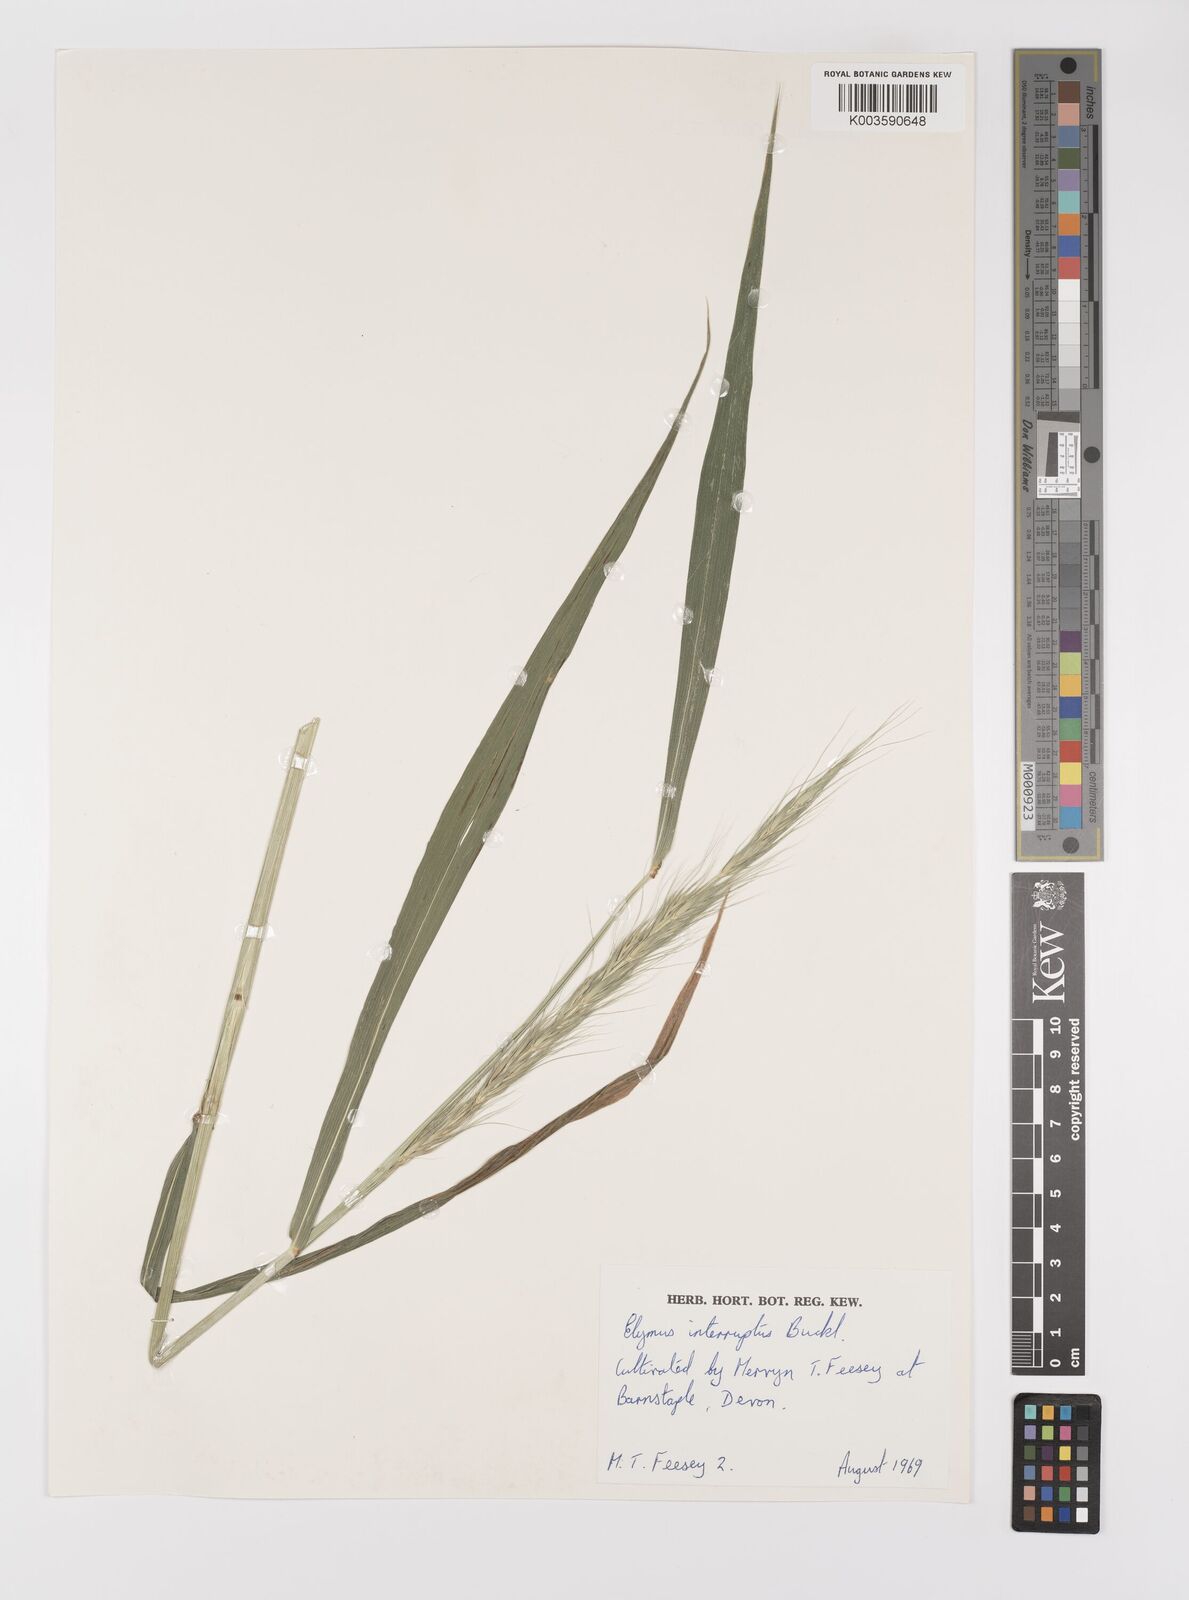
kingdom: Plantae
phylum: Tracheophyta
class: Liliopsida
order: Poales
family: Poaceae
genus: Elymus
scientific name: Elymus interruptus
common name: Southwestern wild rye
